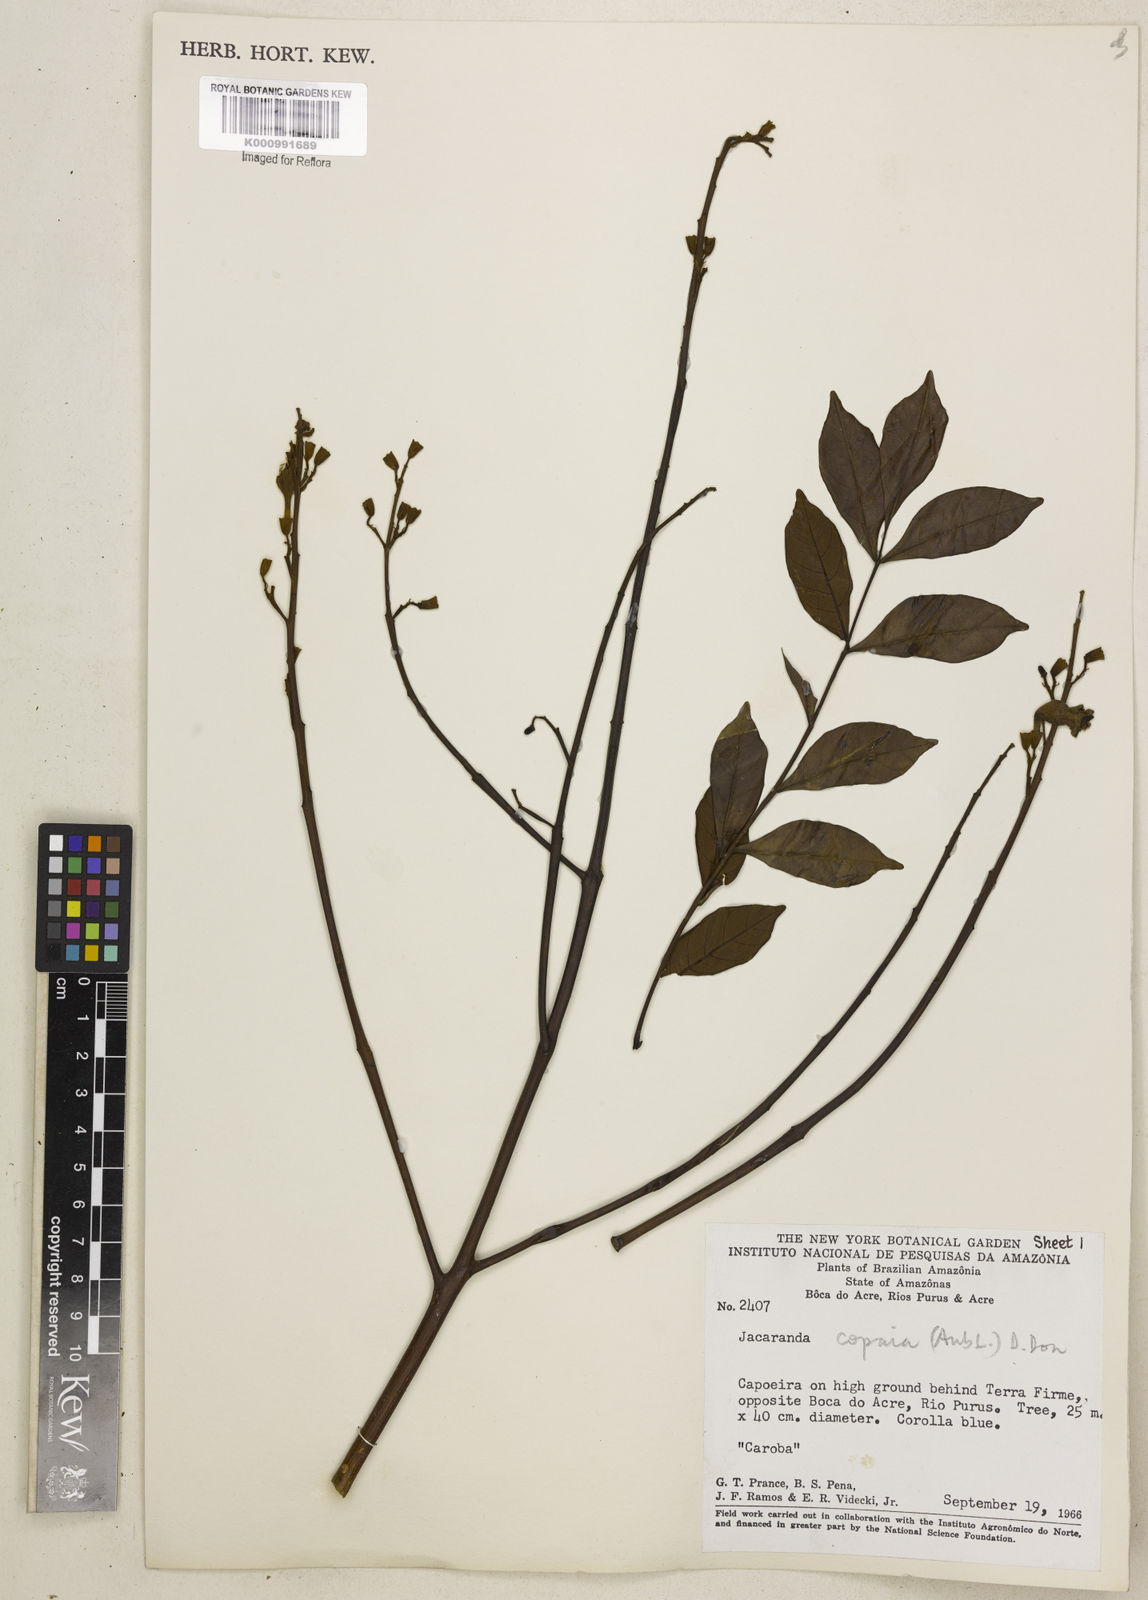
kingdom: Plantae
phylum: Tracheophyta
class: Magnoliopsida
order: Lamiales
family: Bignoniaceae
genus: Jacaranda
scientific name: Jacaranda
